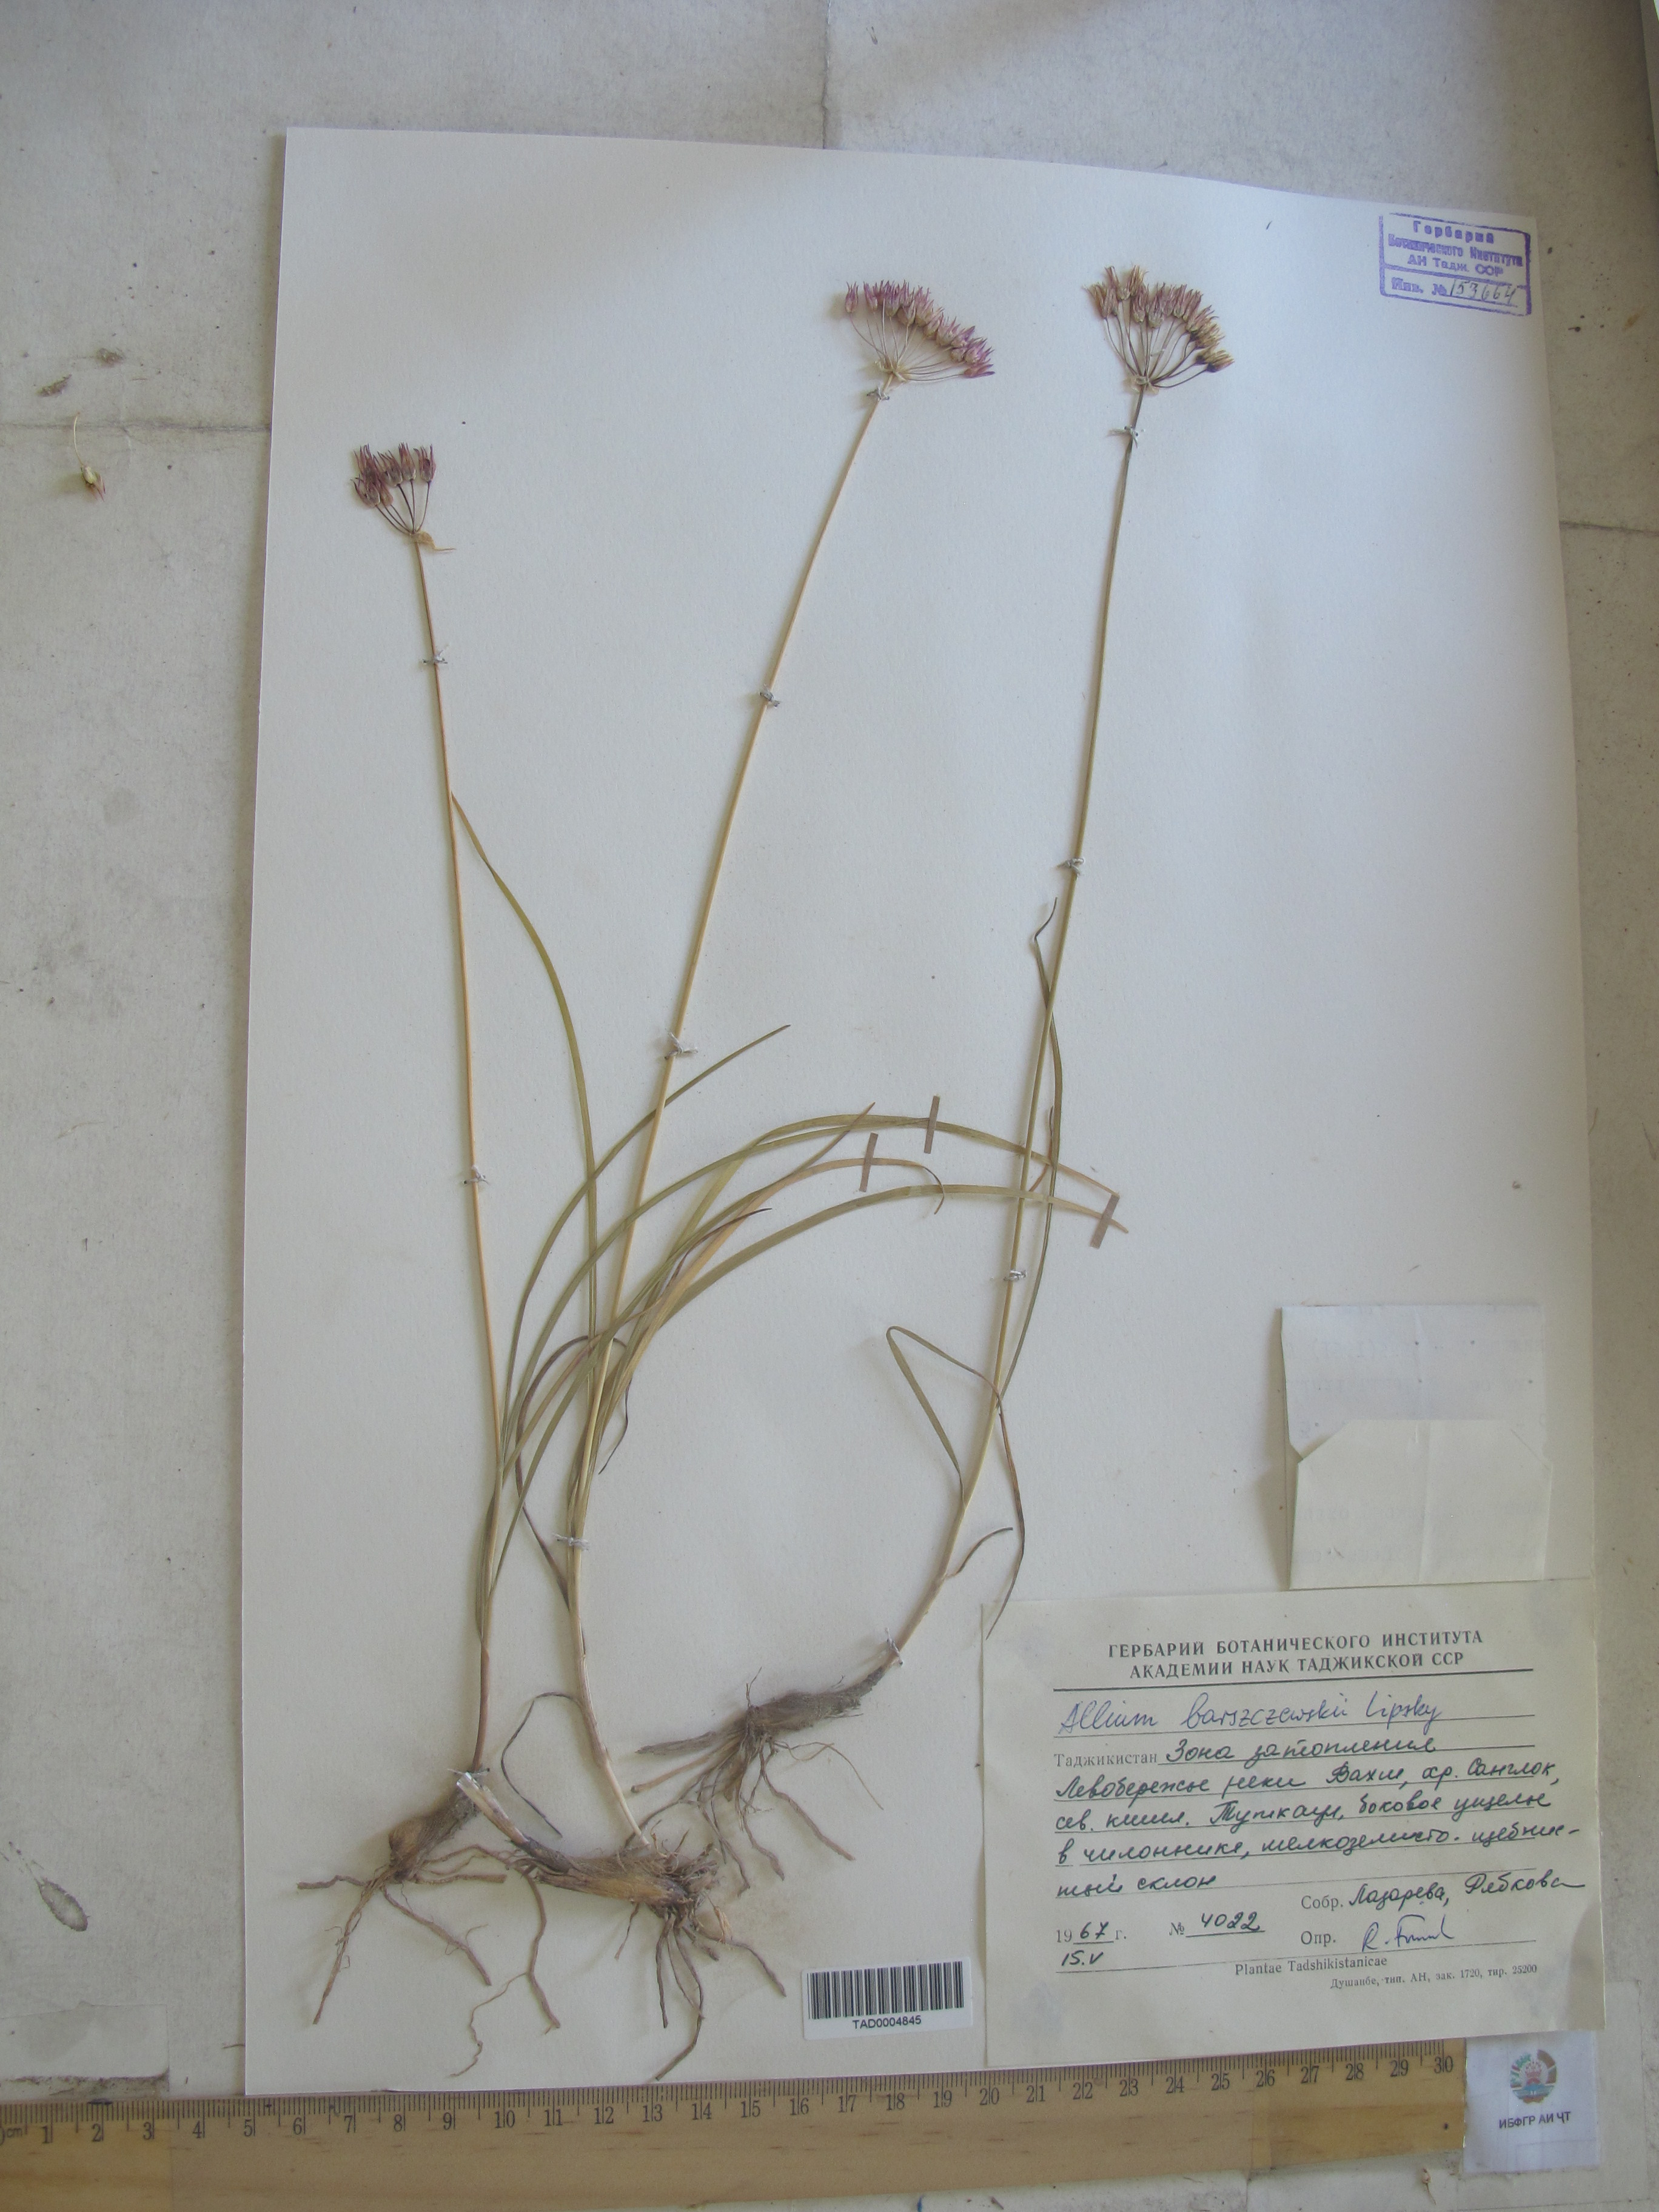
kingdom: Plantae
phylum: Tracheophyta
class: Liliopsida
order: Asparagales
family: Amaryllidaceae
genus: Allium
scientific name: Allium barsczewskii
